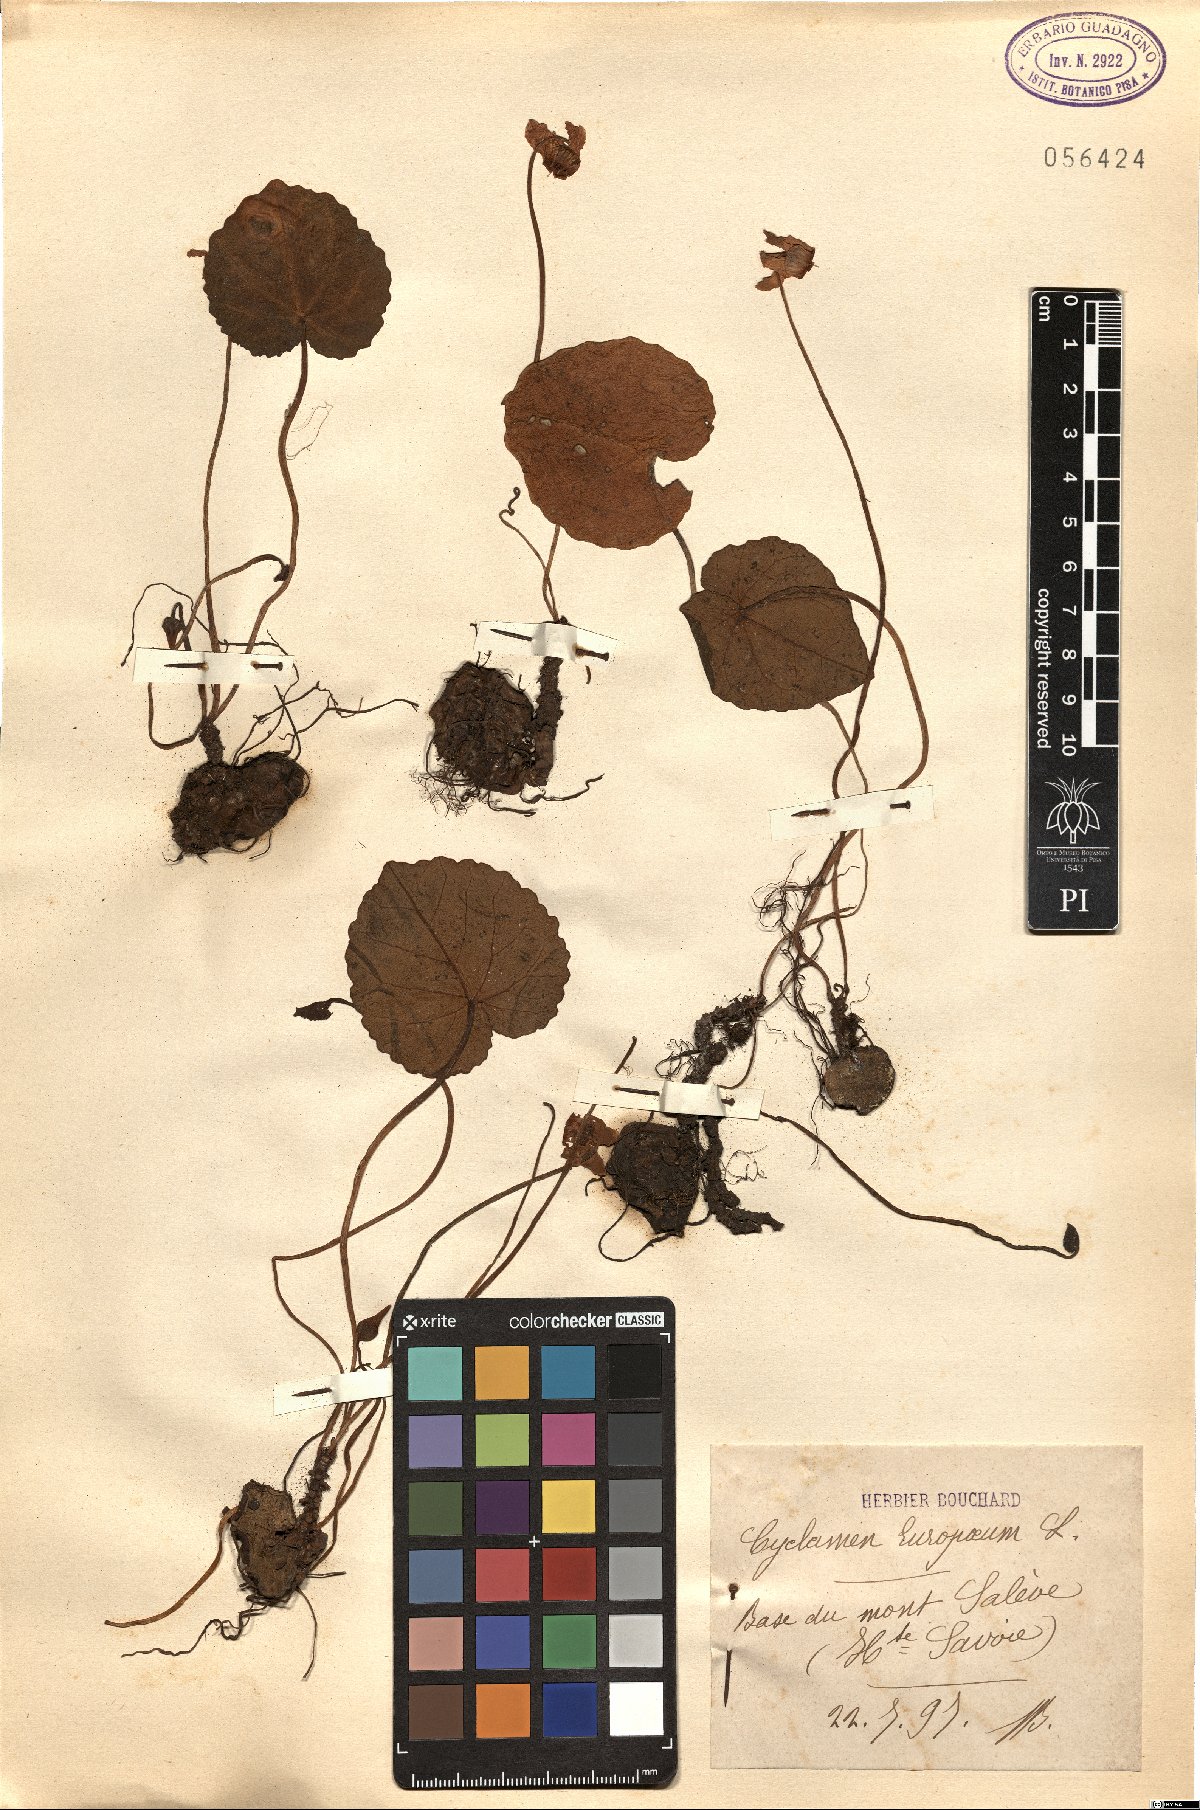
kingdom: Plantae
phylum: Tracheophyta
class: Magnoliopsida
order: Ericales
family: Primulaceae
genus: Cyclamen
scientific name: Cyclamen purpurascens
